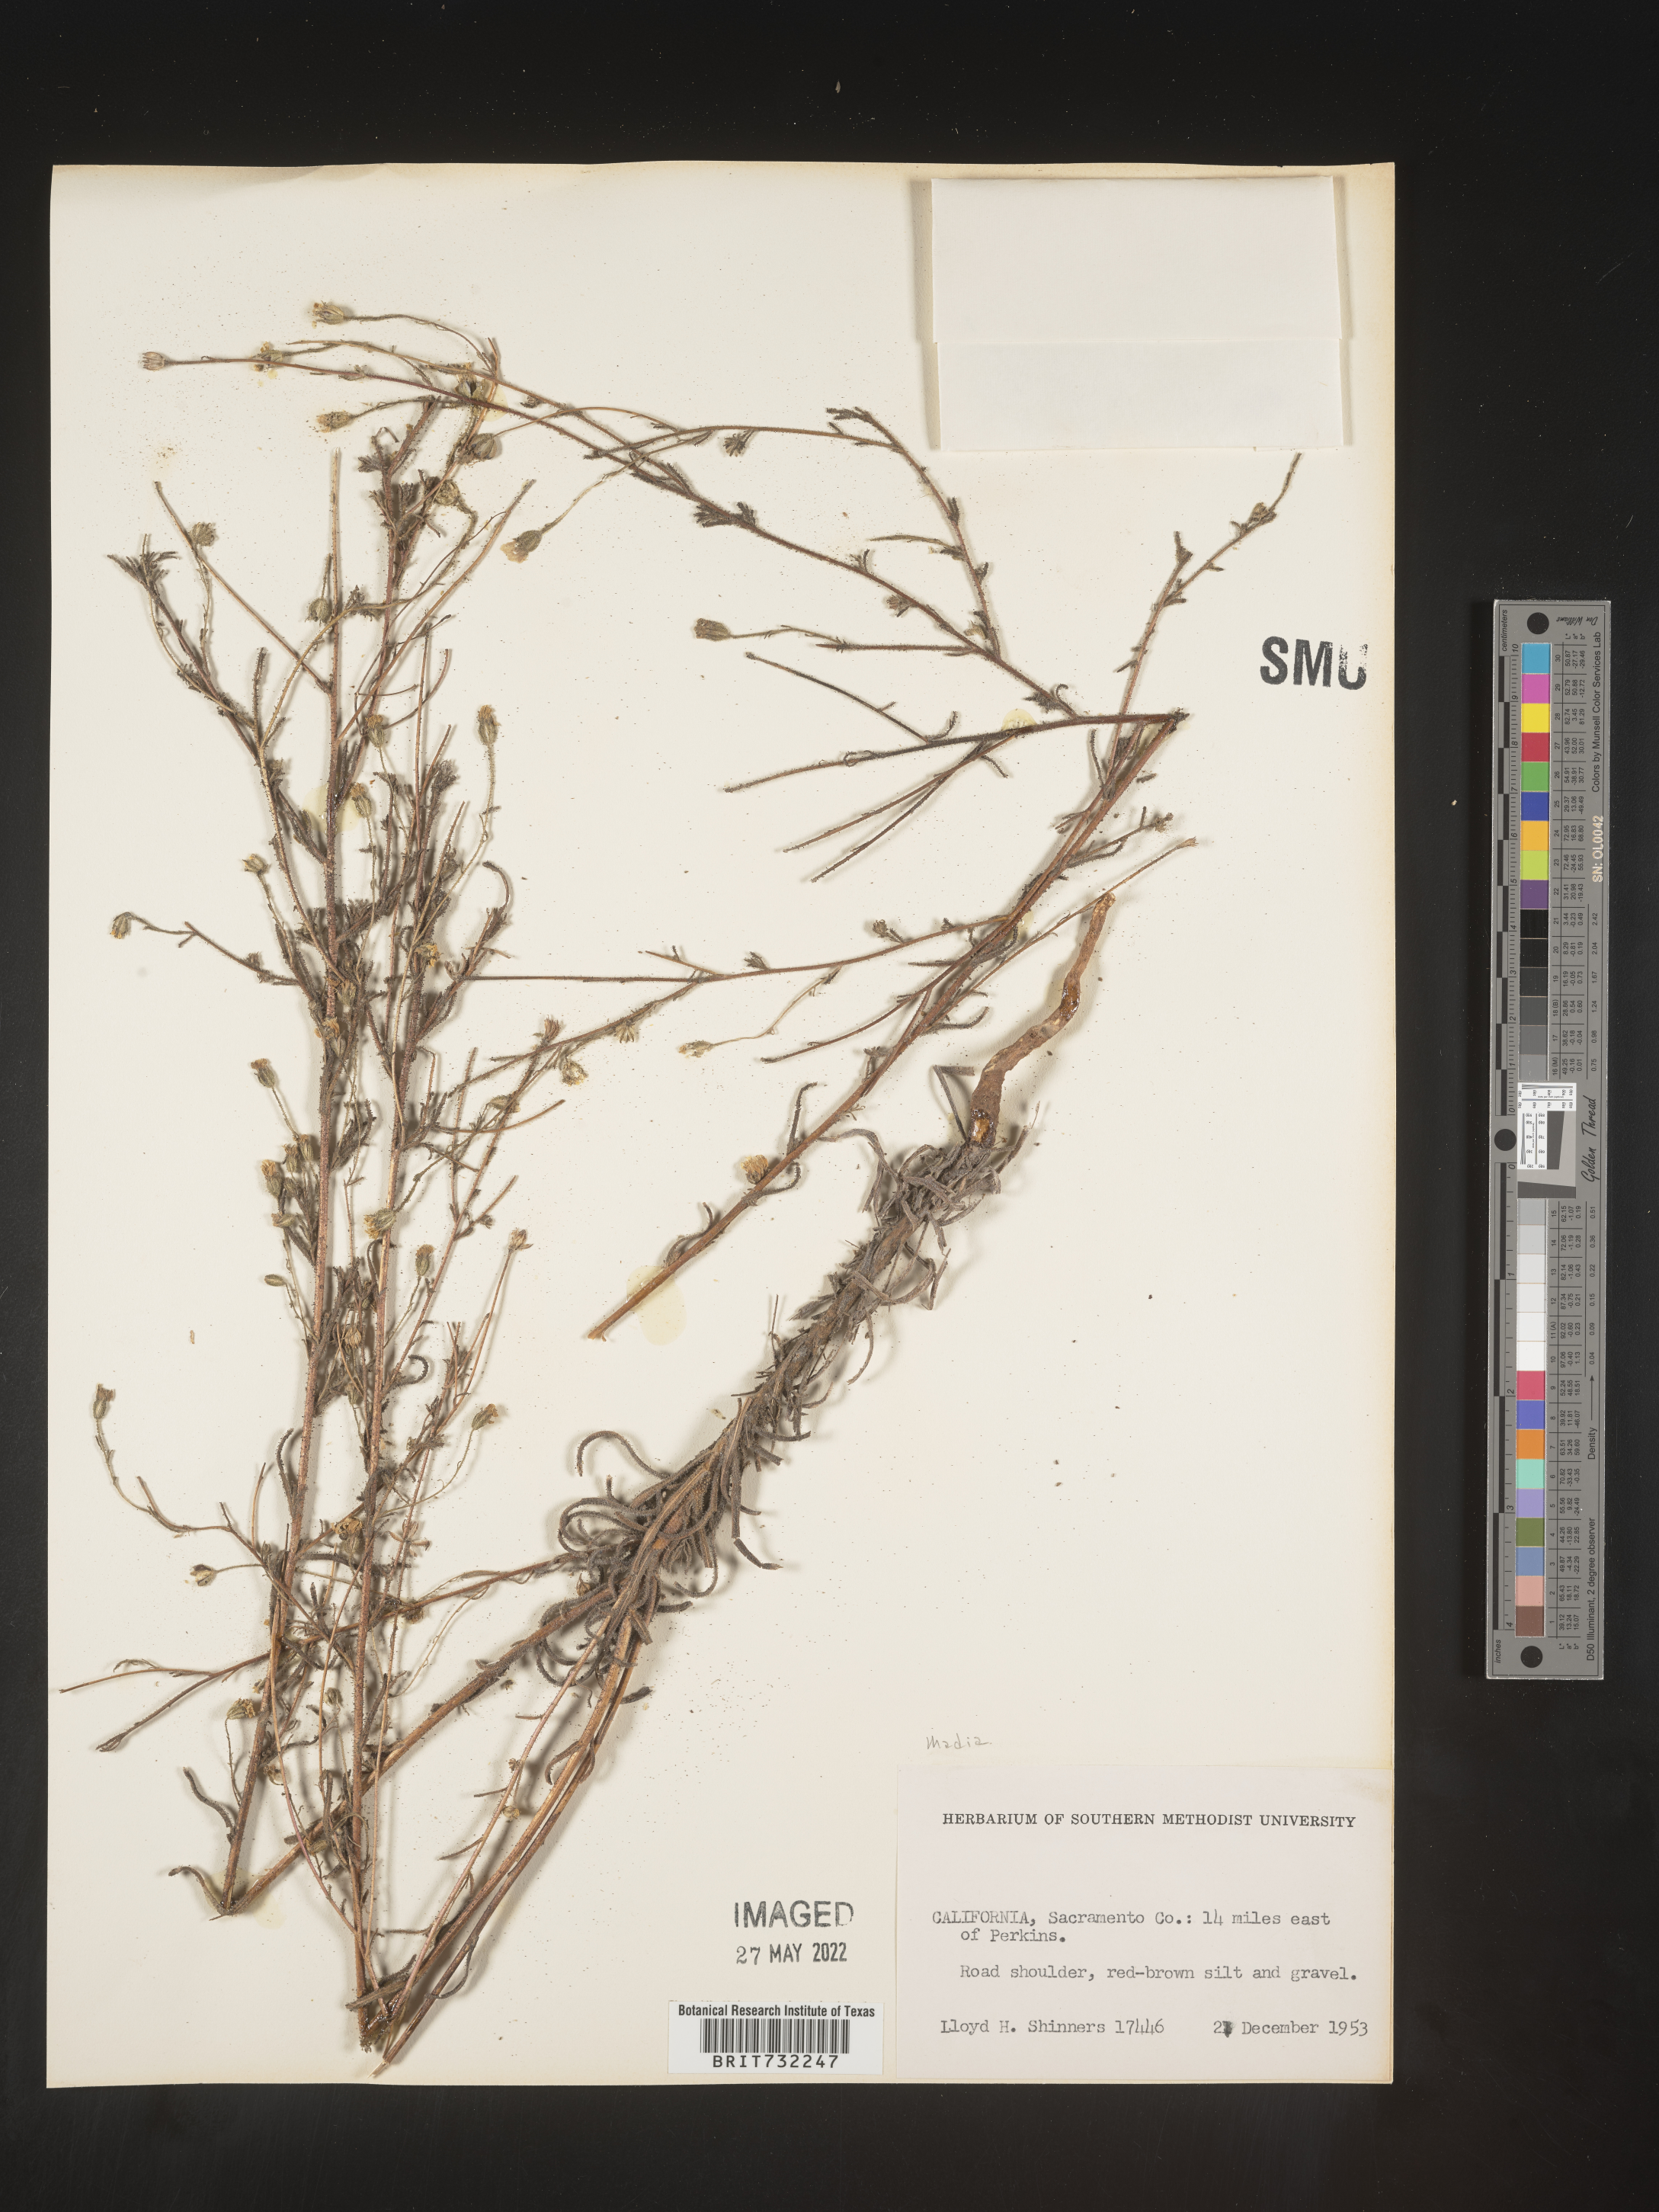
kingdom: Plantae
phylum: Tracheophyta
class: Magnoliopsida
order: Asterales
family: Asteraceae
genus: Madia
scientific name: Madia
